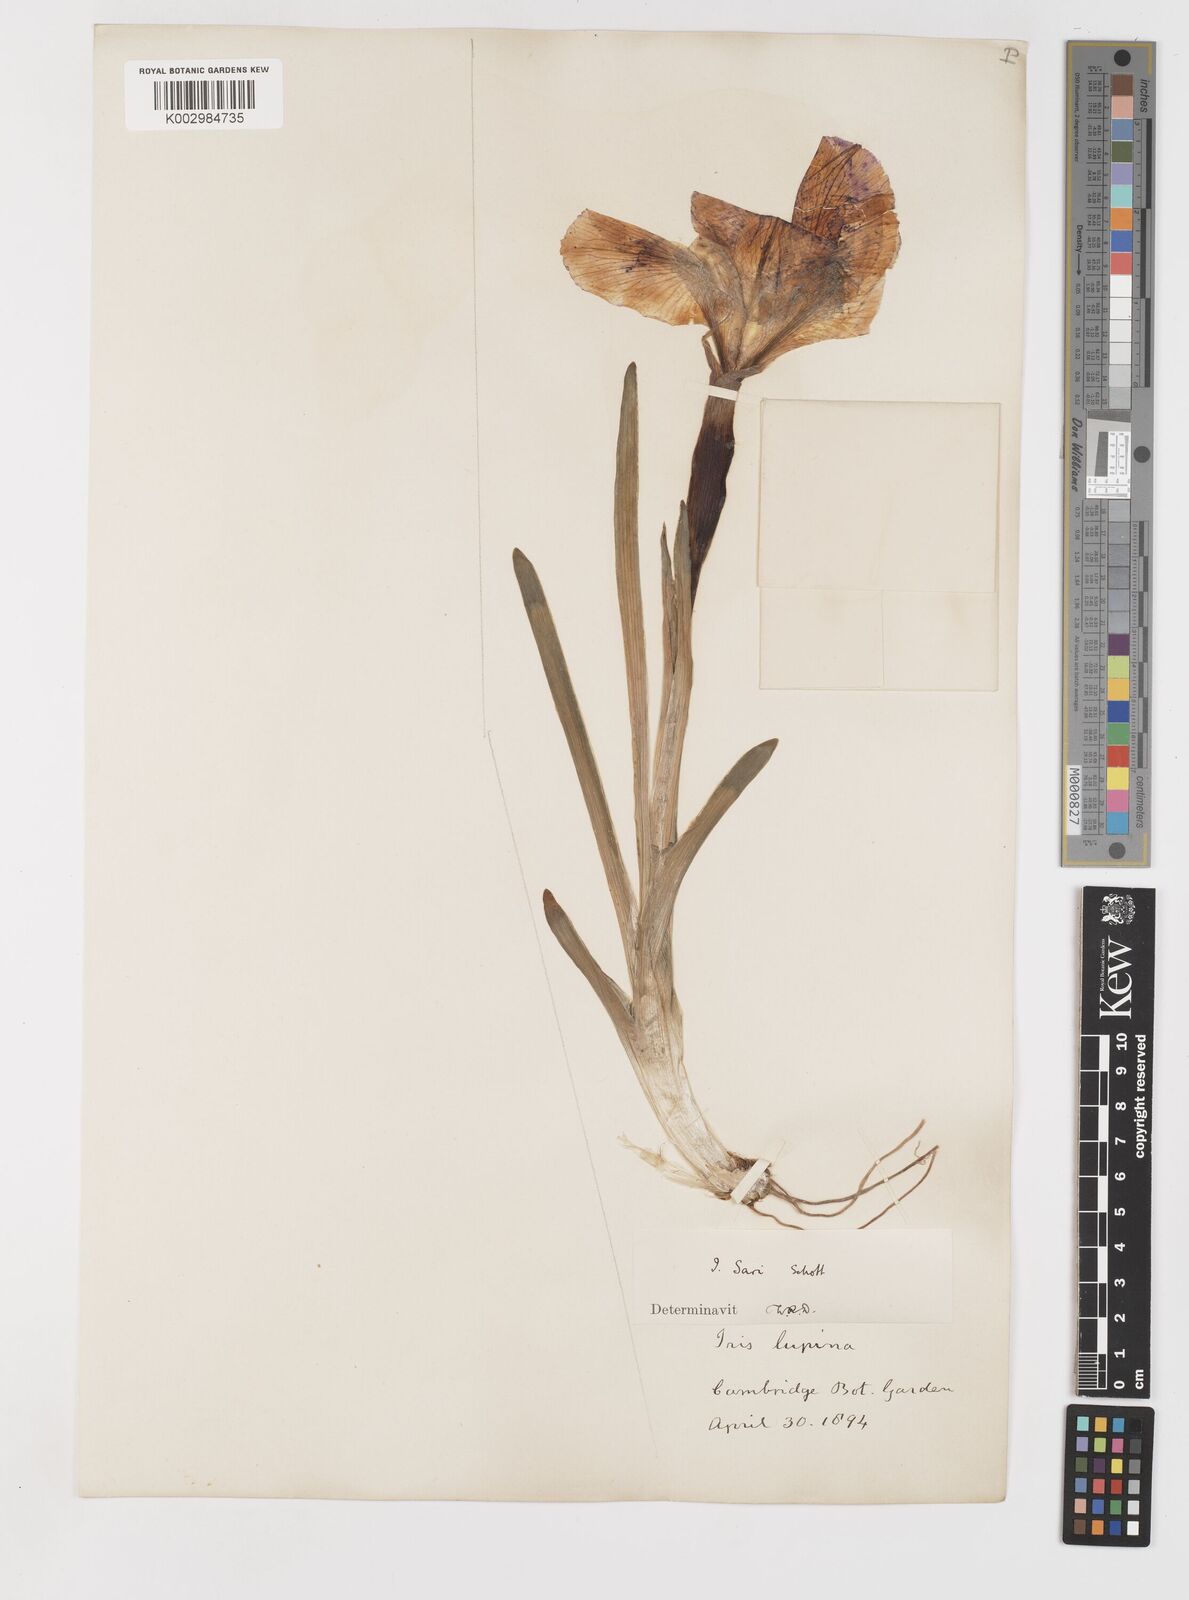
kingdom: Plantae
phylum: Tracheophyta
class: Liliopsida
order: Asparagales
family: Iridaceae
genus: Iris
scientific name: Iris sari
